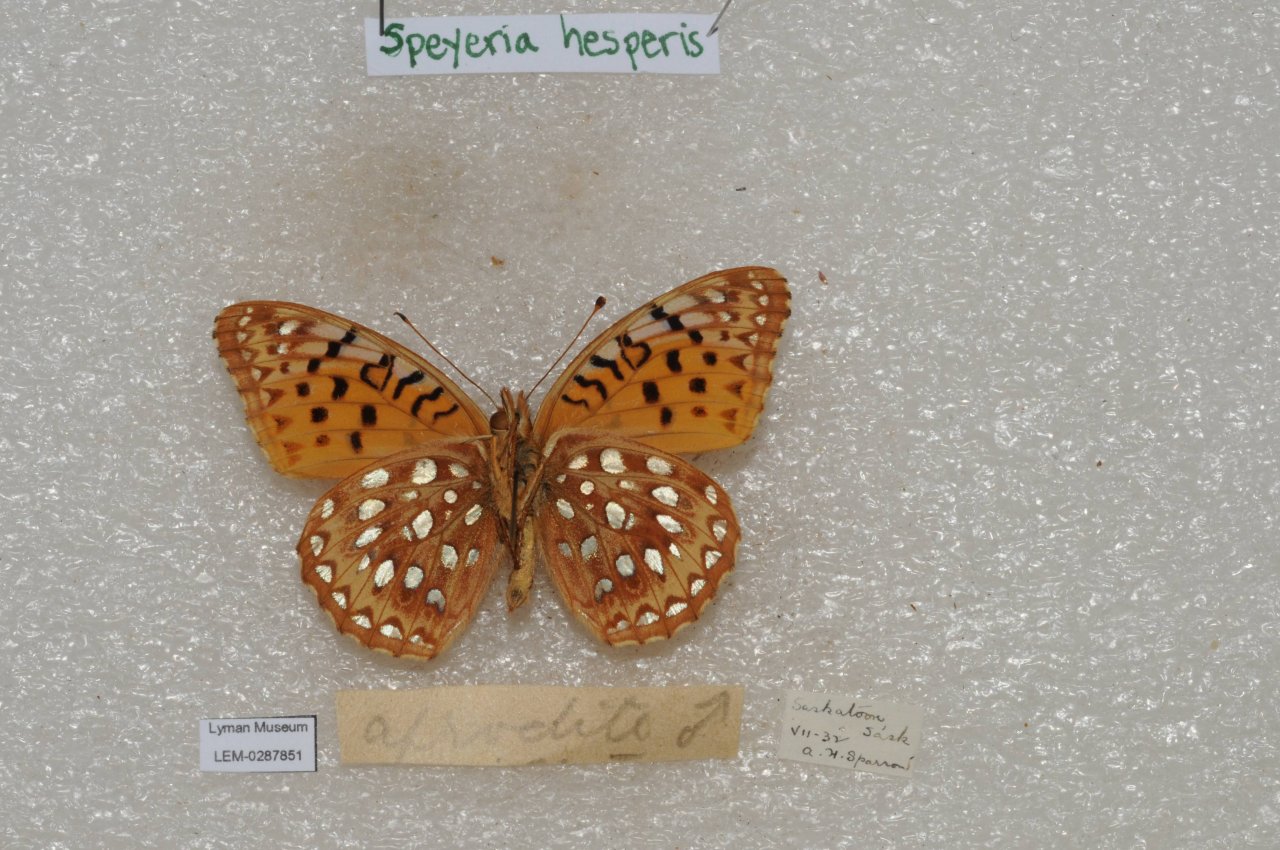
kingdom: Animalia
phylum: Arthropoda
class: Insecta
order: Lepidoptera
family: Nymphalidae
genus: Speyeria
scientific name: Speyeria atlantis
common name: Northwestern Fritillary
